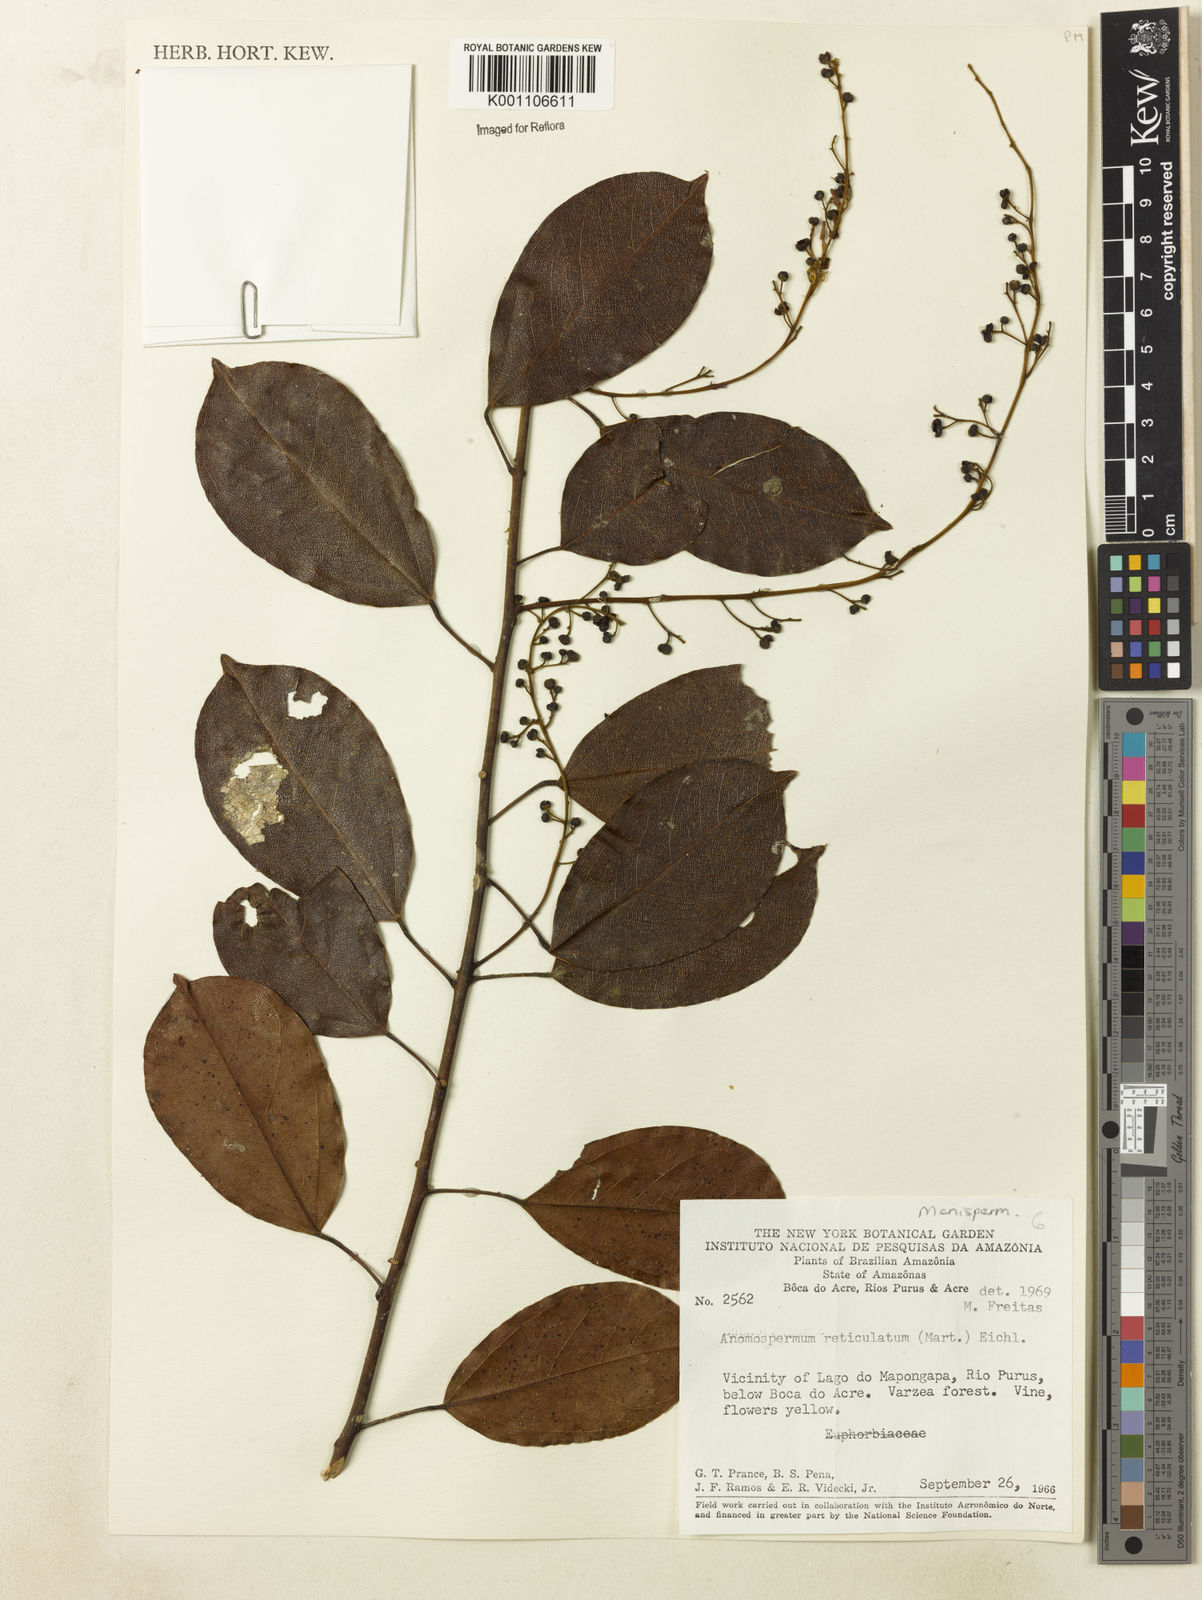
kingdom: Plantae
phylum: Tracheophyta
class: Magnoliopsida
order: Ranunculales
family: Menispermaceae
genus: Anomospermum
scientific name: Anomospermum reticulatum
